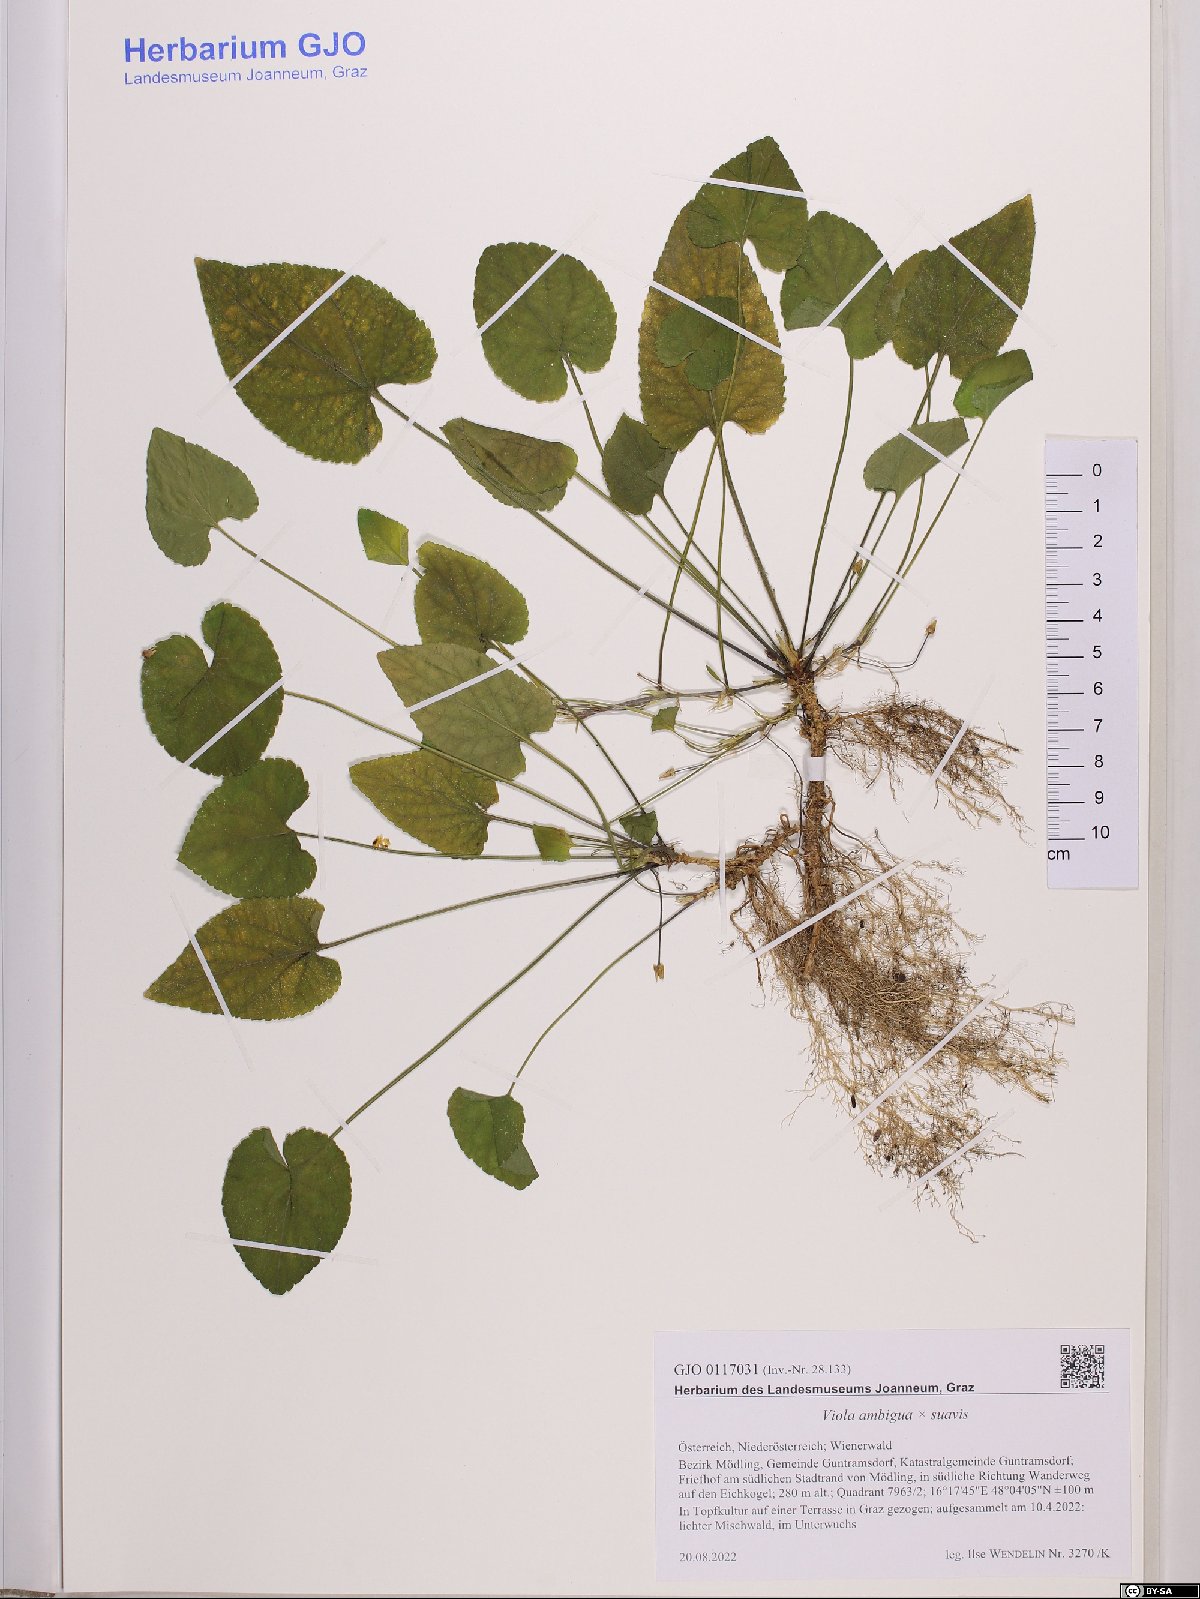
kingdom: Plantae
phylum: Tracheophyta
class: Magnoliopsida
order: Malpighiales
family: Violaceae
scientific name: Violaceae
